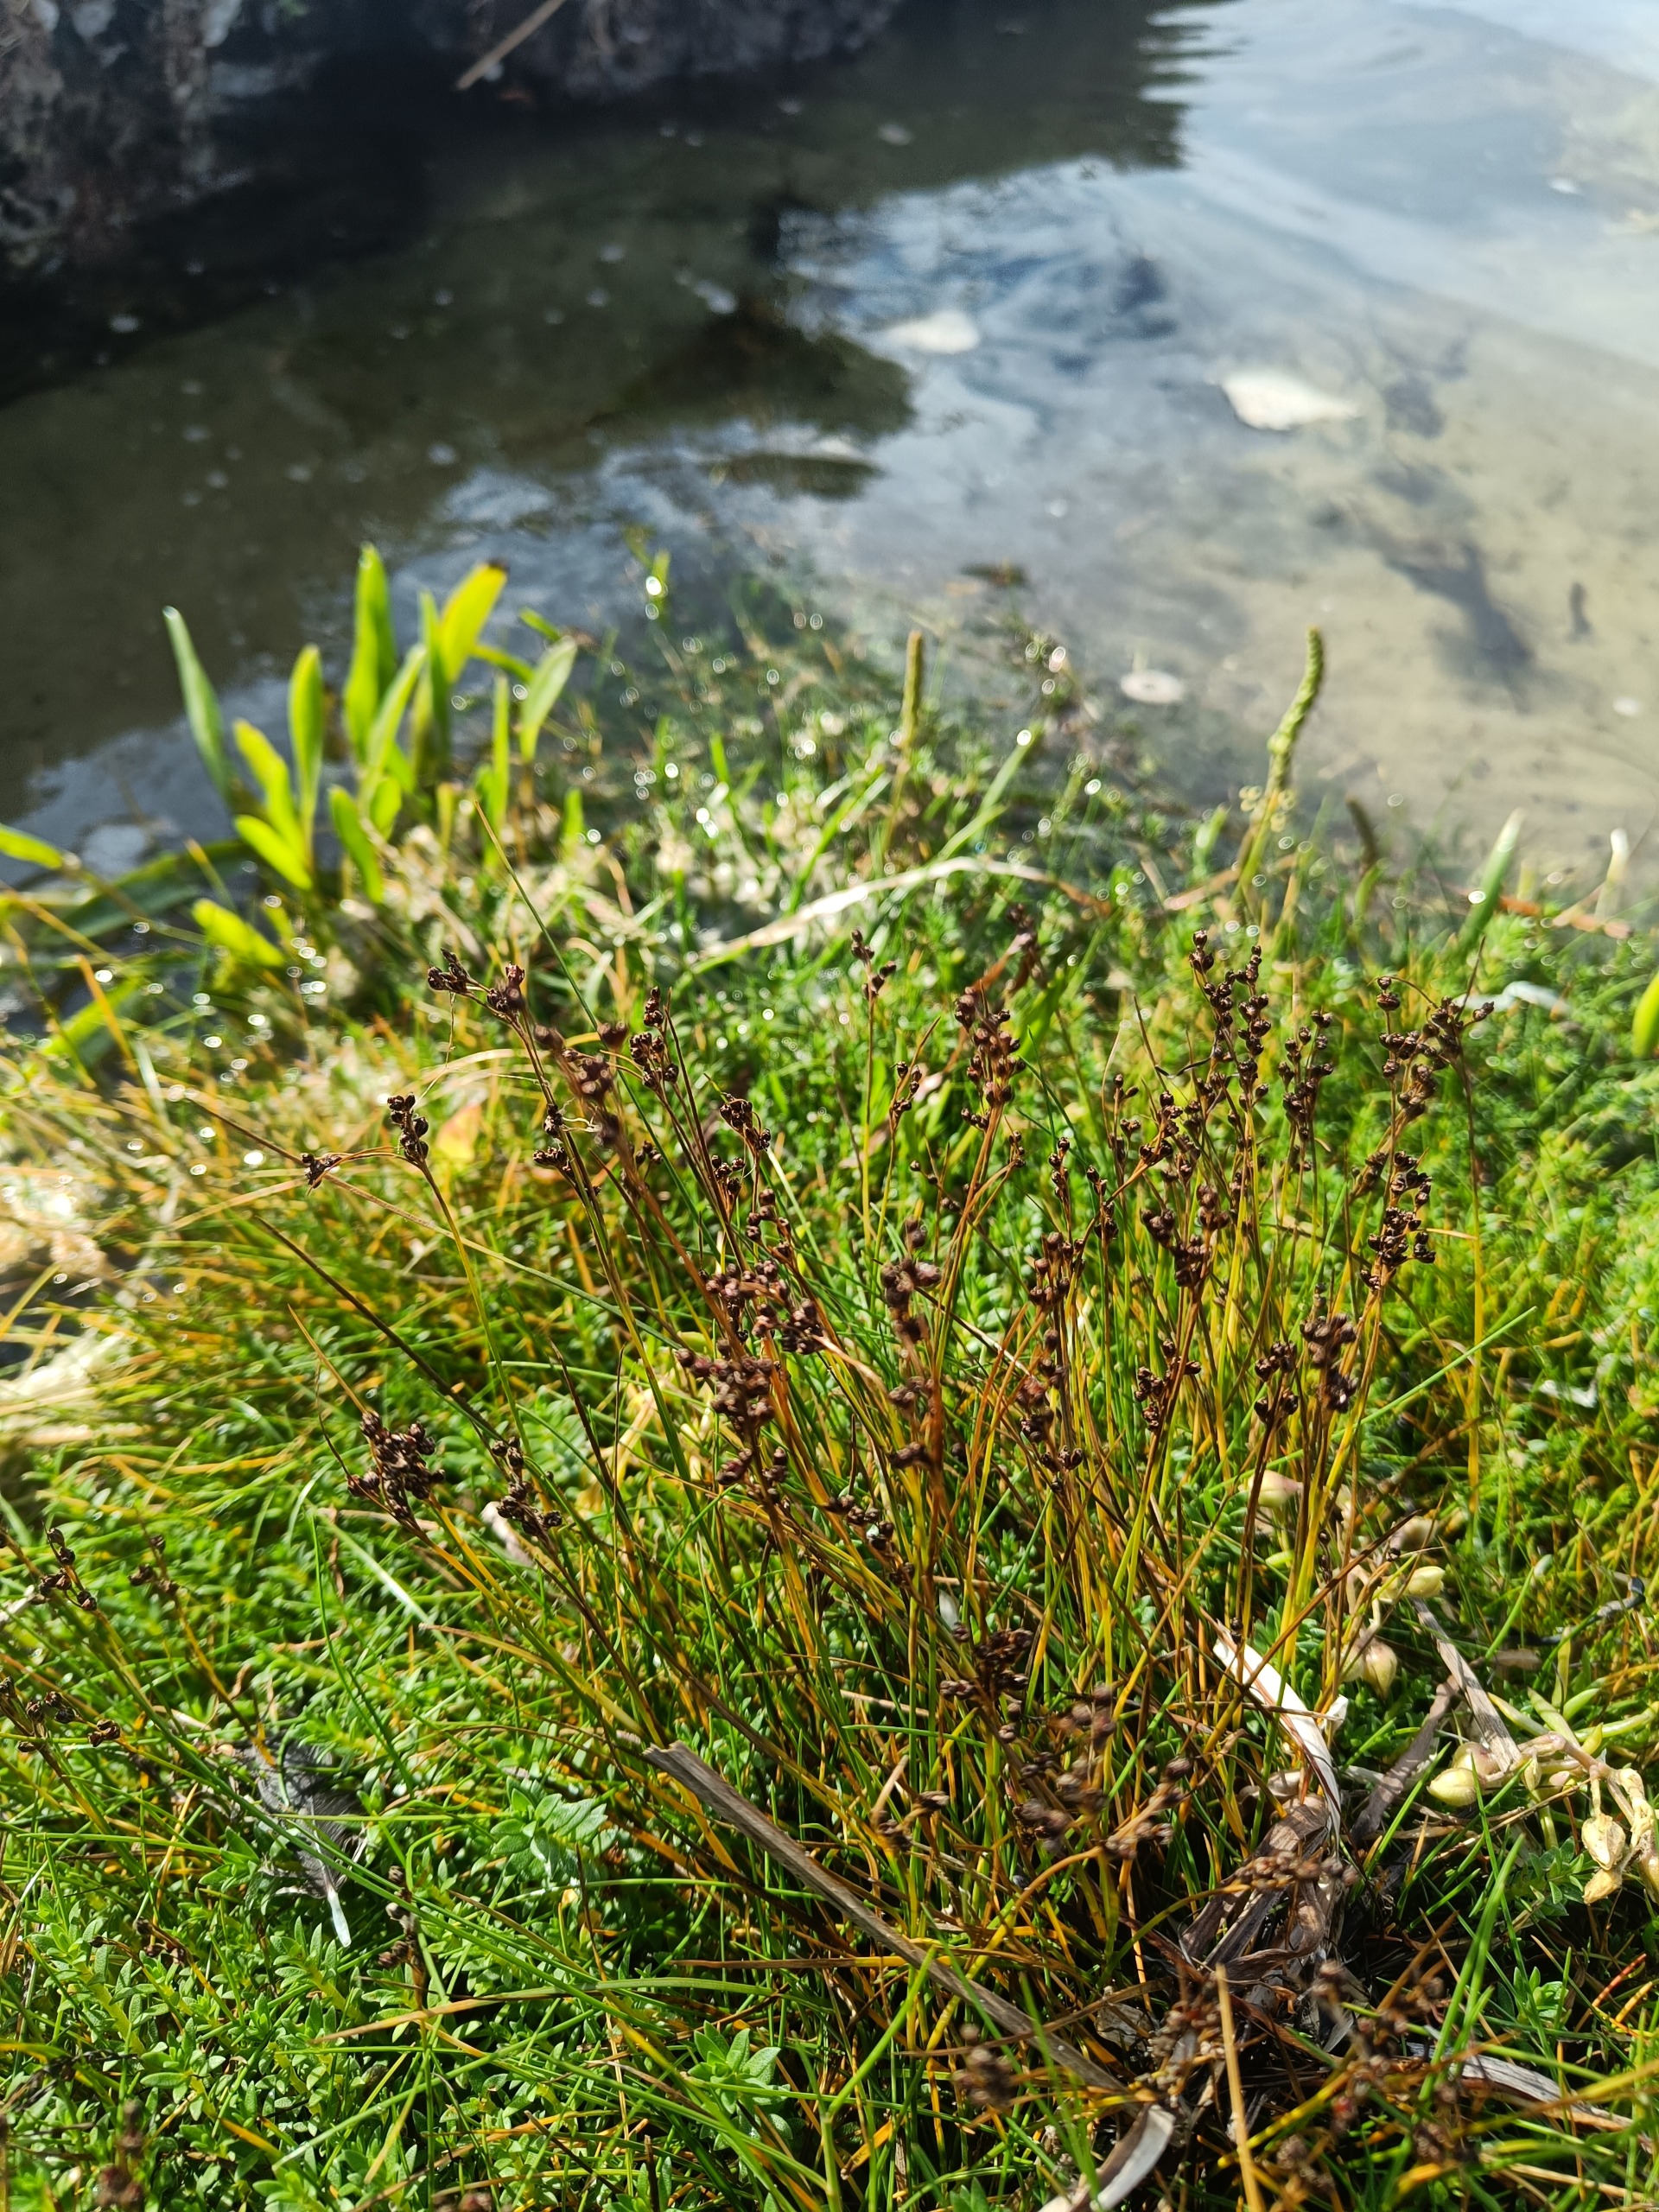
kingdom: Plantae
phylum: Tracheophyta
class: Liliopsida
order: Poales
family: Juncaceae
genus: Juncus
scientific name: Juncus gerardi
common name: Harril
